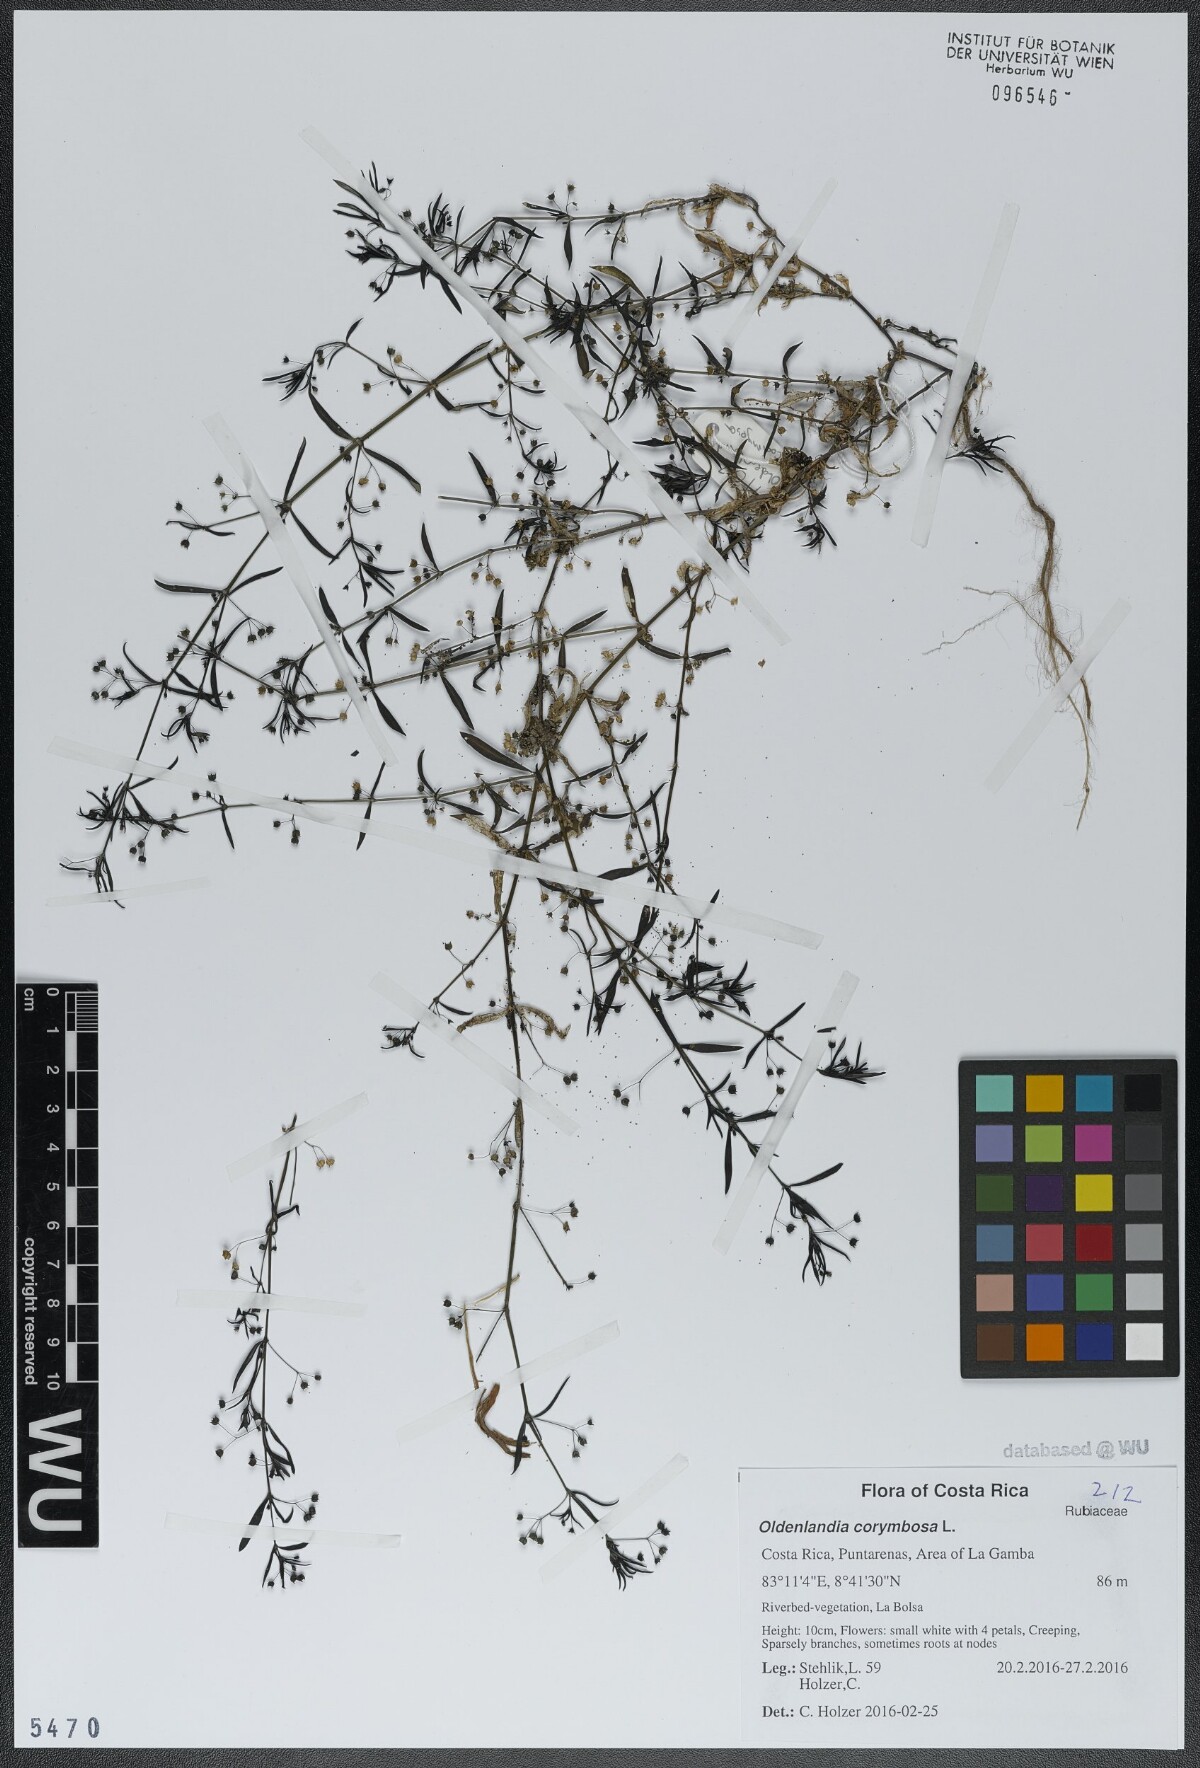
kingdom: Plantae
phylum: Tracheophyta
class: Magnoliopsida
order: Gentianales
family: Rubiaceae
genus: Oldenlandia
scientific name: Oldenlandia corymbosa
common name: Flat-top mille graines
